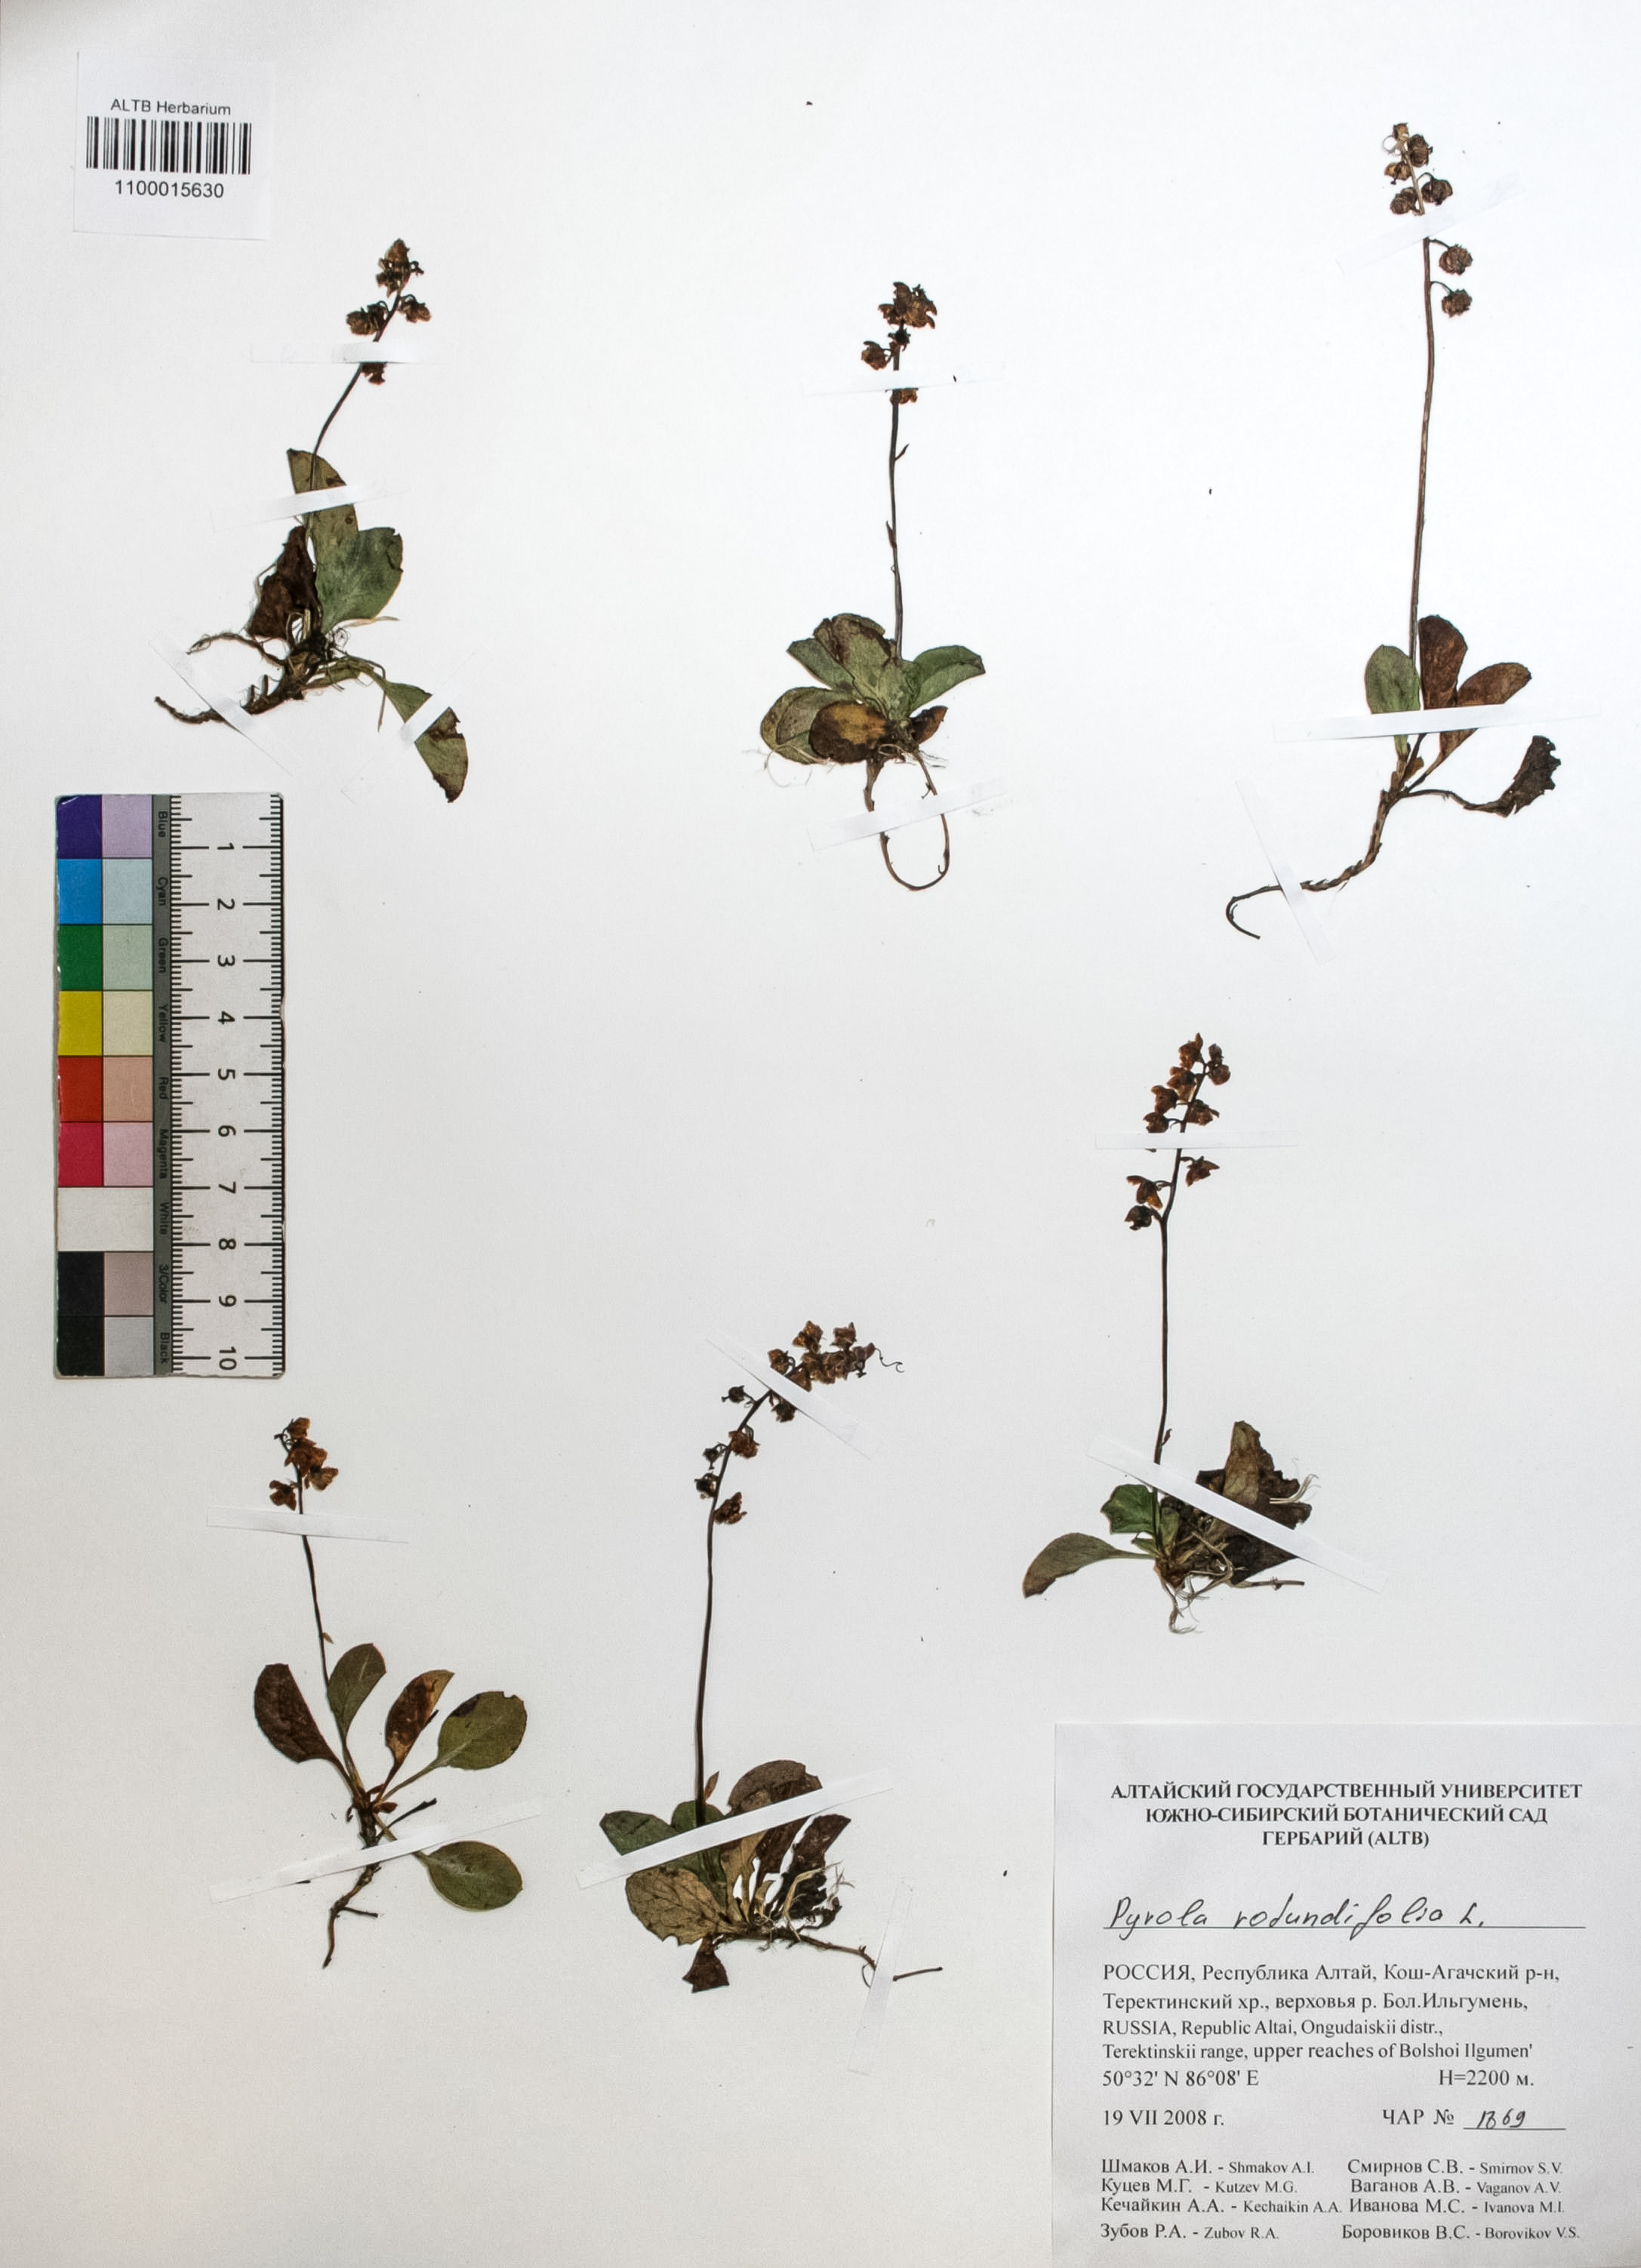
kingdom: Plantae
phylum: Tracheophyta
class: Magnoliopsida
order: Ericales
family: Ericaceae
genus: Pyrola
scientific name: Pyrola rotundifolia
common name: Round-leaved wintergreen
